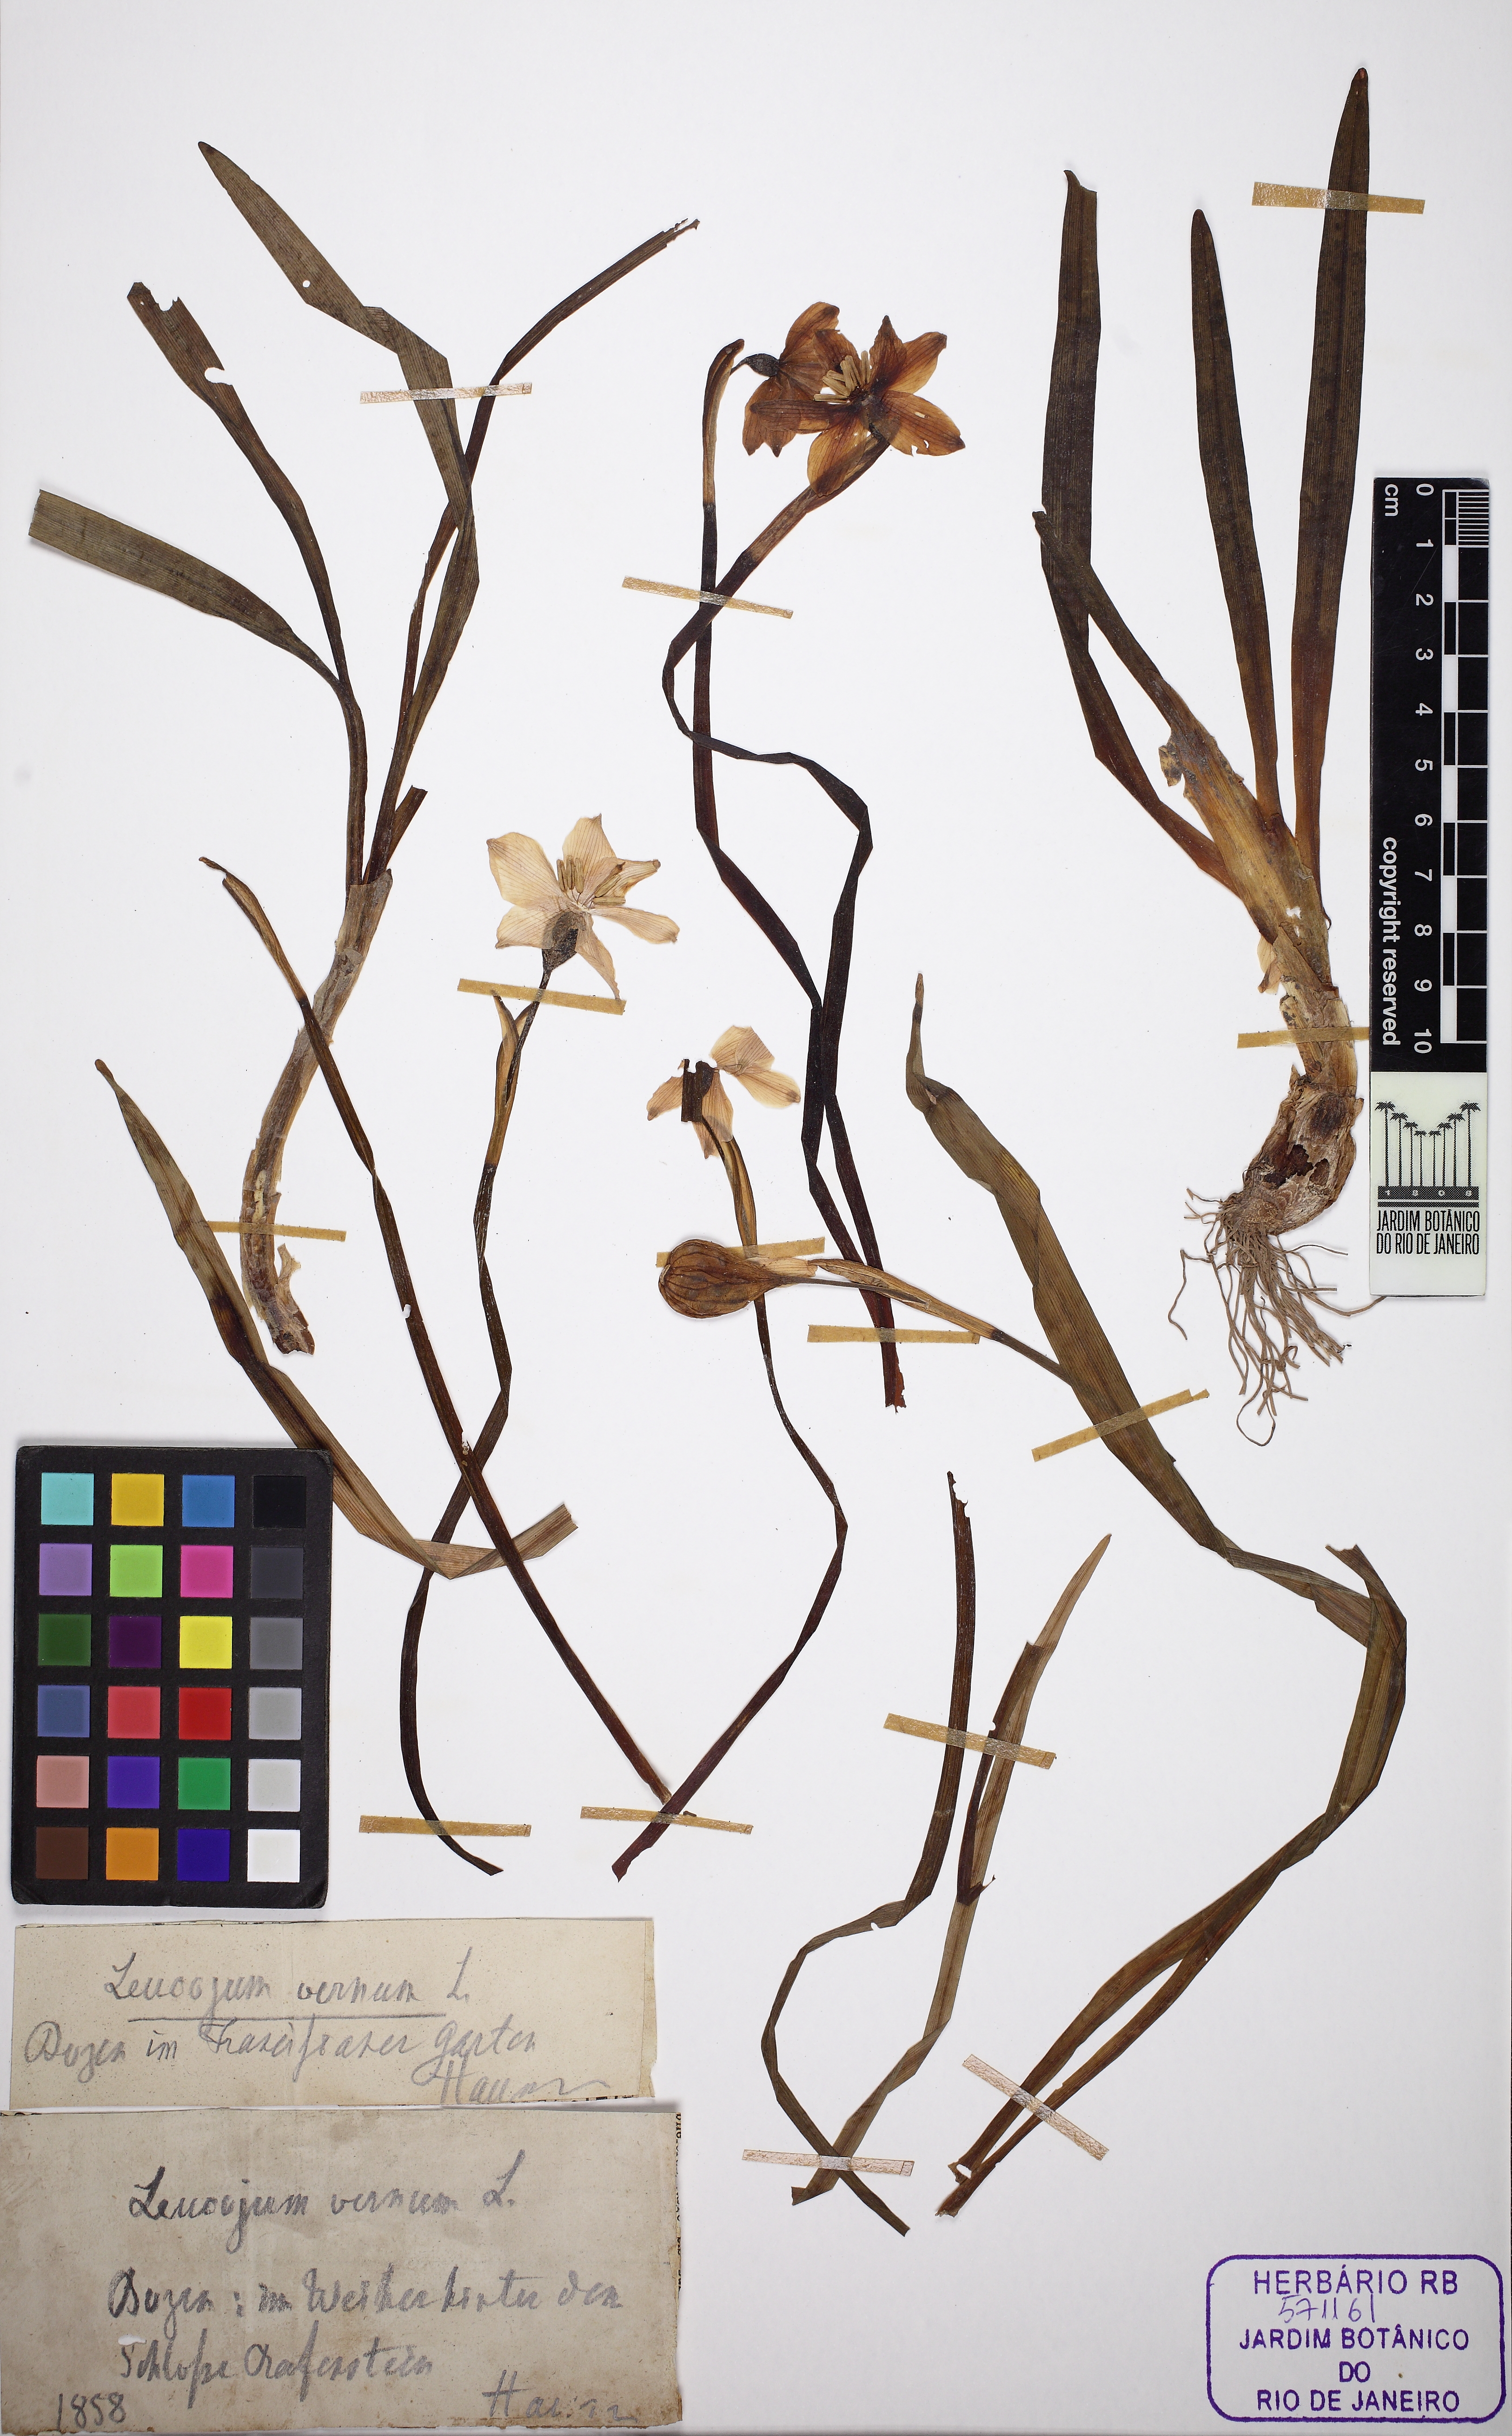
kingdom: Plantae
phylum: Tracheophyta
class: Liliopsida
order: Asparagales
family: Amaryllidaceae
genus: Leucojum
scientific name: Leucojum vernum
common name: Spring snowflake
